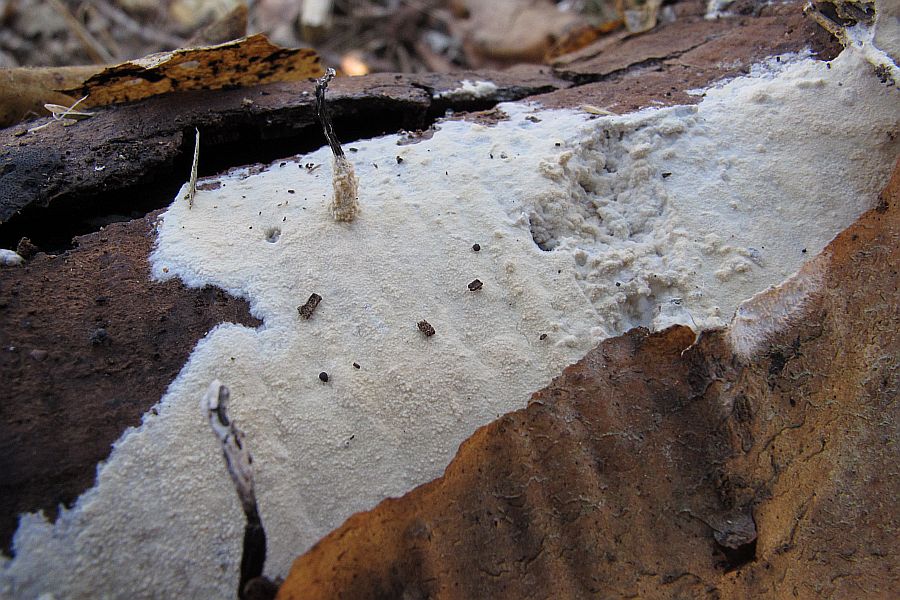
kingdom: Fungi
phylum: Basidiomycota
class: Agaricomycetes
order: Polyporales
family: Hyphodermataceae
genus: Hyphoderma
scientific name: Hyphoderma setigerum
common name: håret kalkskind
